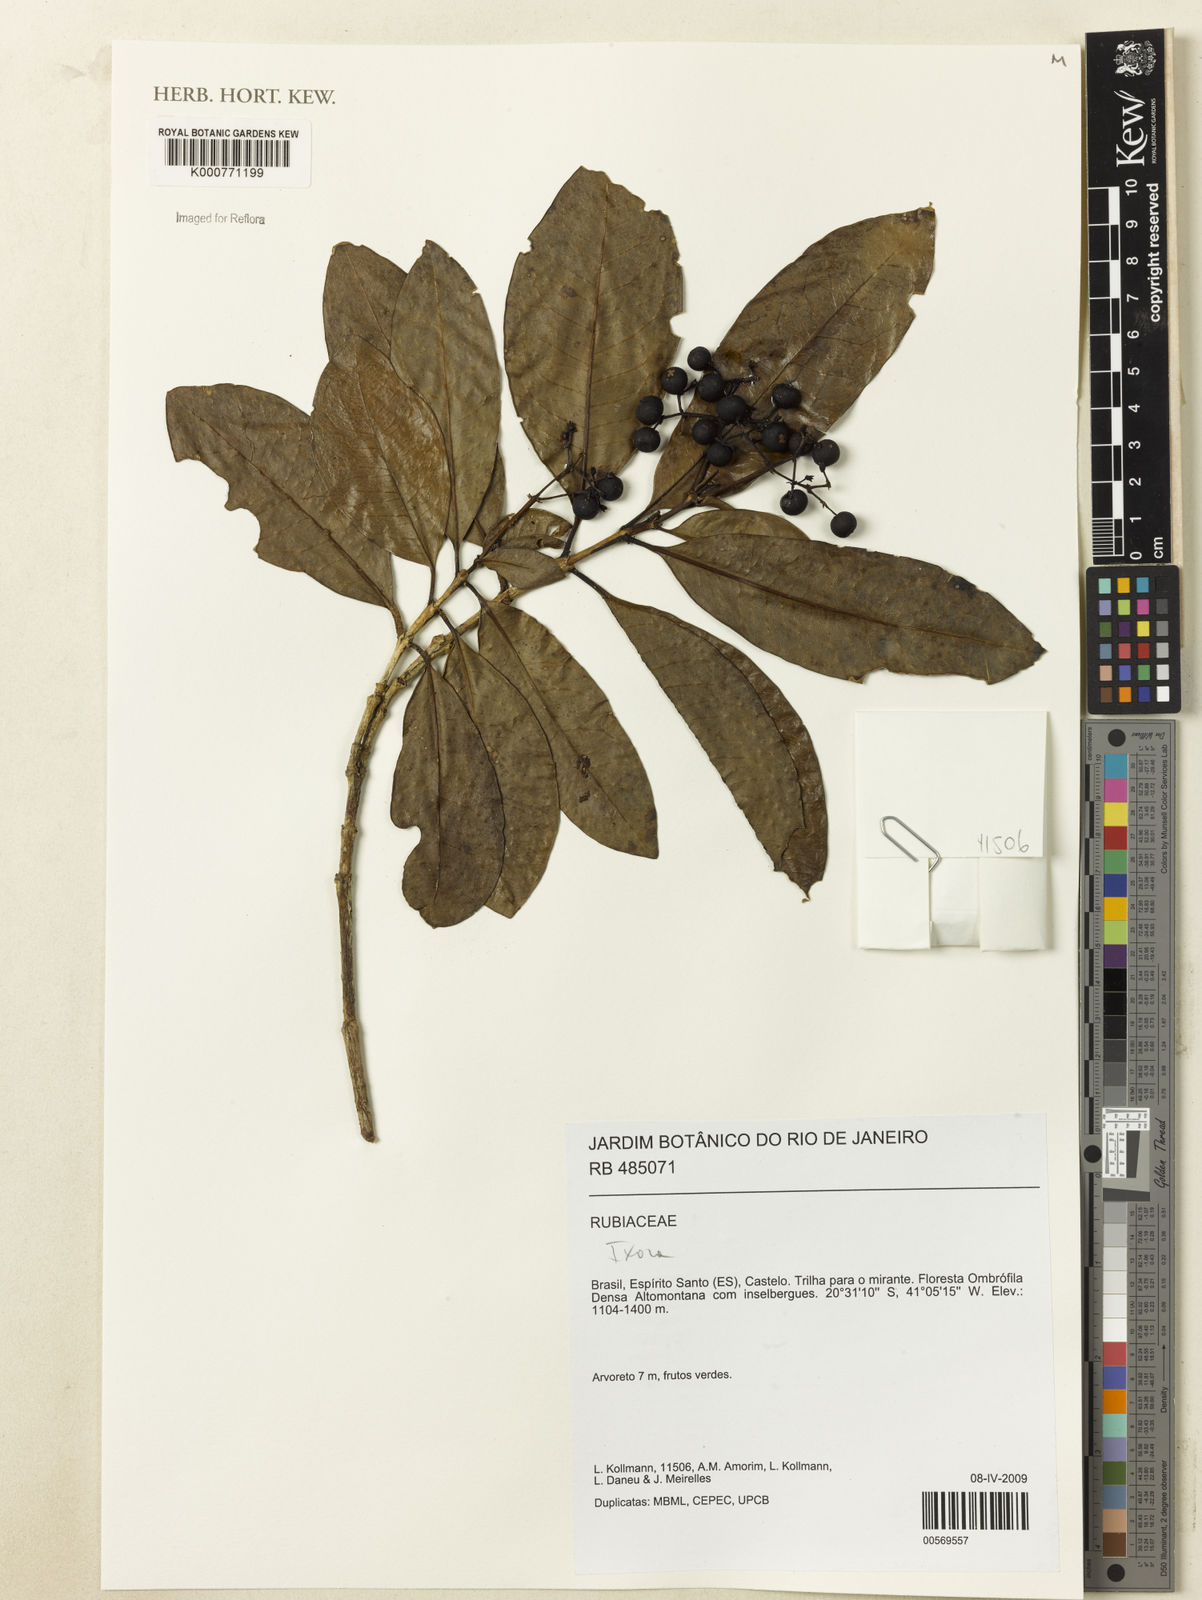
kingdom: Plantae
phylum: Tracheophyta
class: Magnoliopsida
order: Gentianales
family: Rubiaceae
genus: Ixora
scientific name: Ixora
